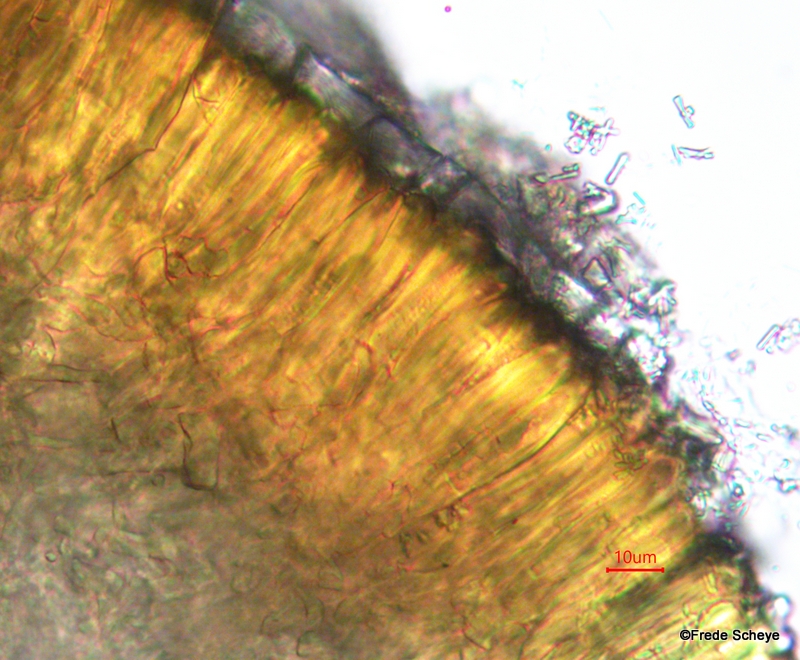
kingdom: Fungi
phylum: Basidiomycota
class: Agaricomycetes
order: Polyporales
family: Polyporaceae
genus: Ganoderma
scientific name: Ganoderma lucidum
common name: skinnende lakporesvamp
